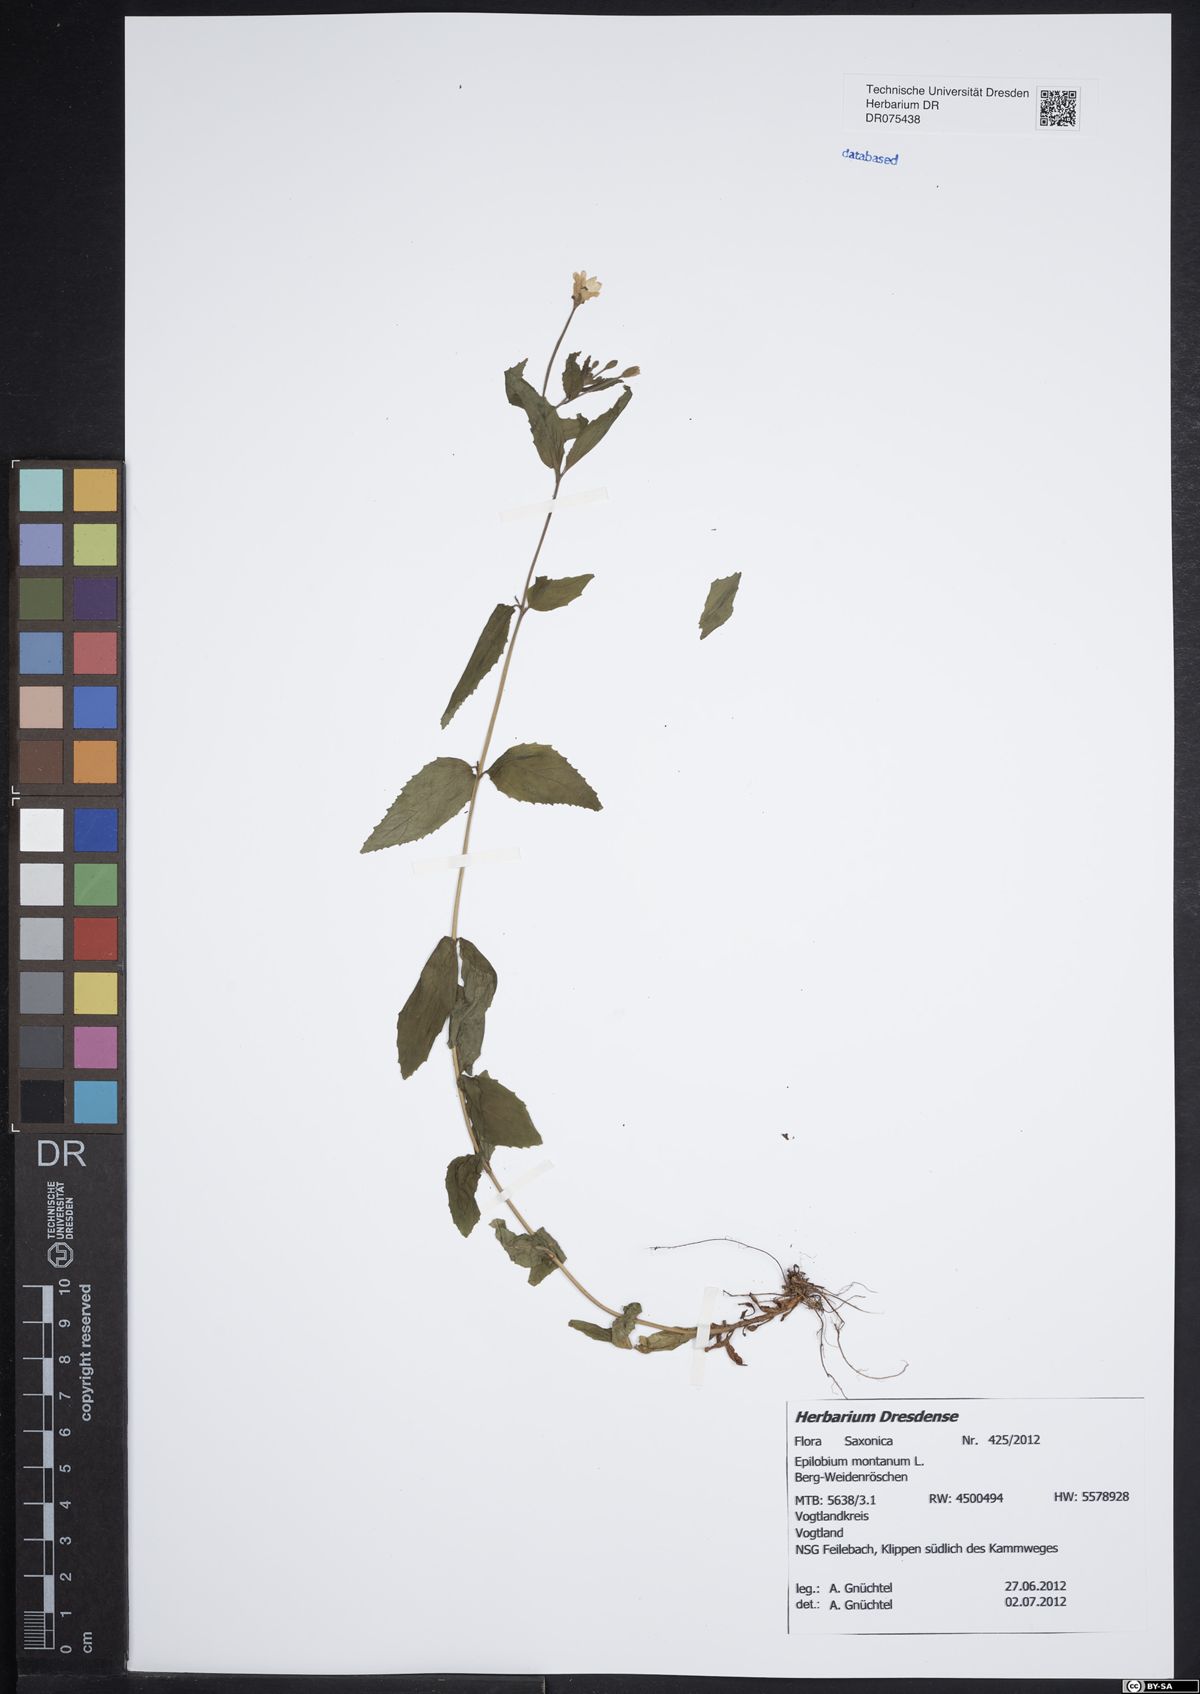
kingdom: Plantae
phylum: Tracheophyta
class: Magnoliopsida
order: Myrtales
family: Onagraceae
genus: Epilobium
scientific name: Epilobium montanum
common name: Broad-leaved willowherb
